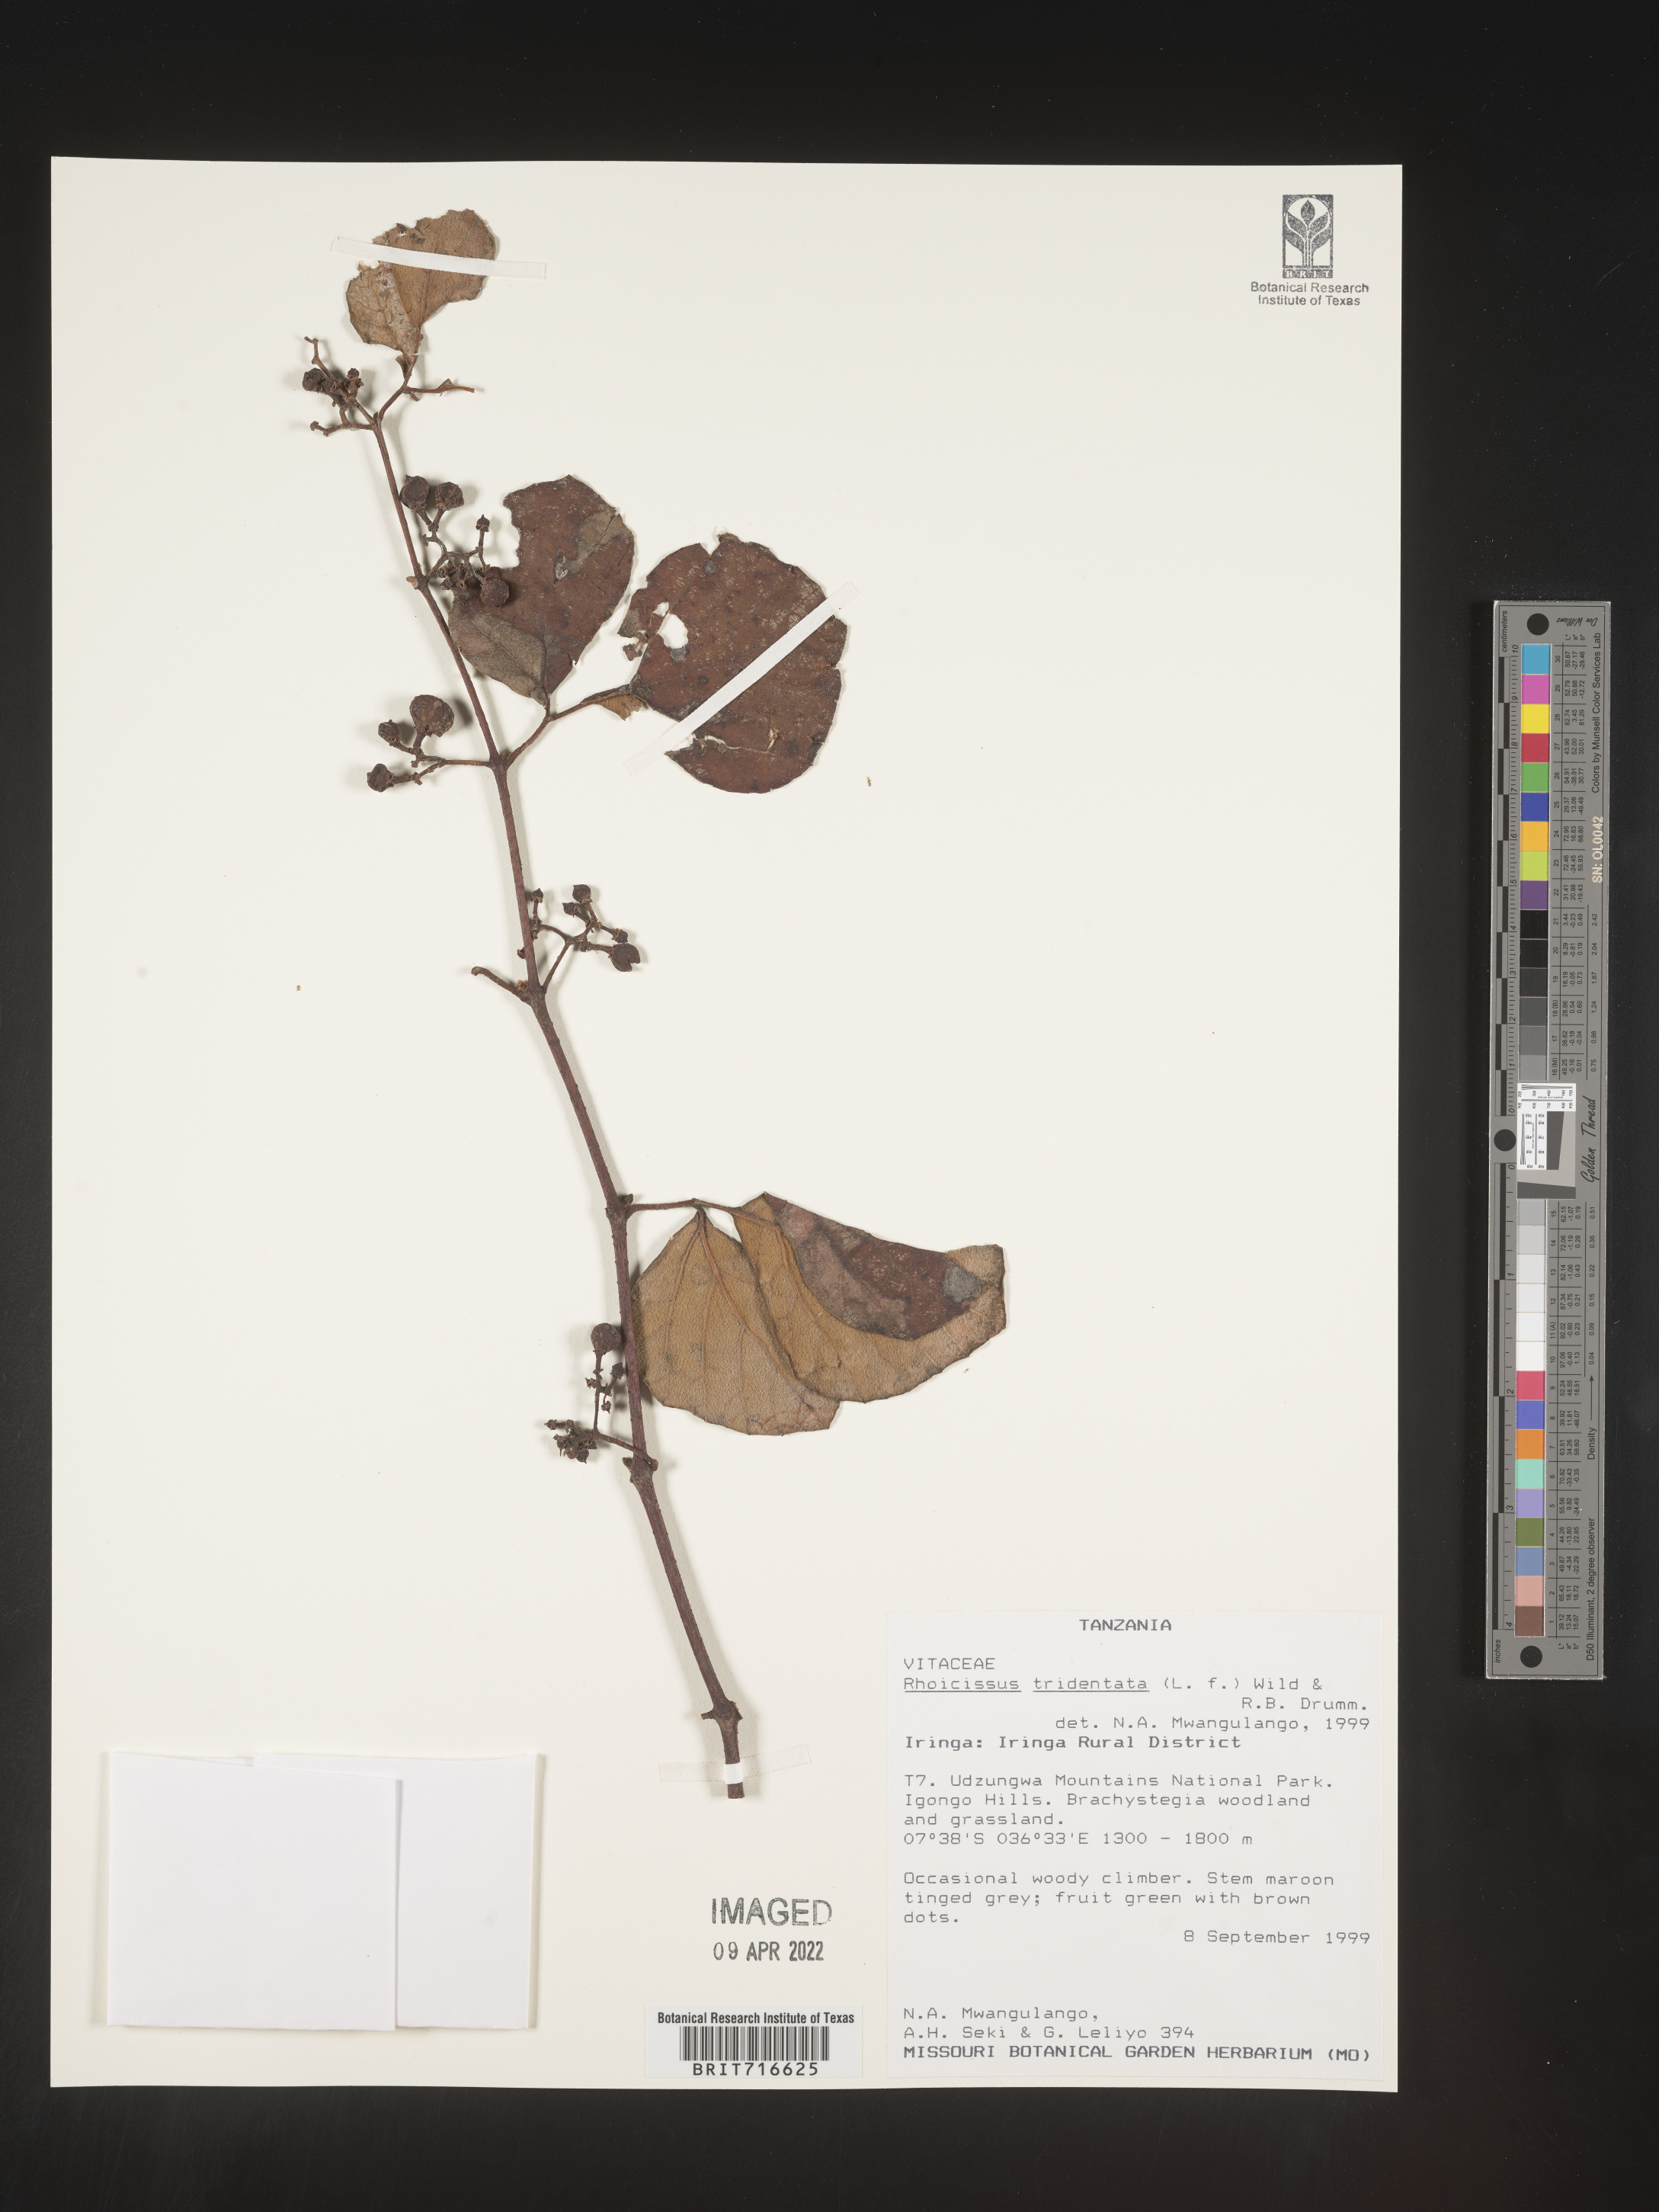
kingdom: Plantae
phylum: Tracheophyta
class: Magnoliopsida
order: Vitales
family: Vitaceae
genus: Rhoicissus
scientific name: Rhoicissus tridentata
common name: Common forest grape
